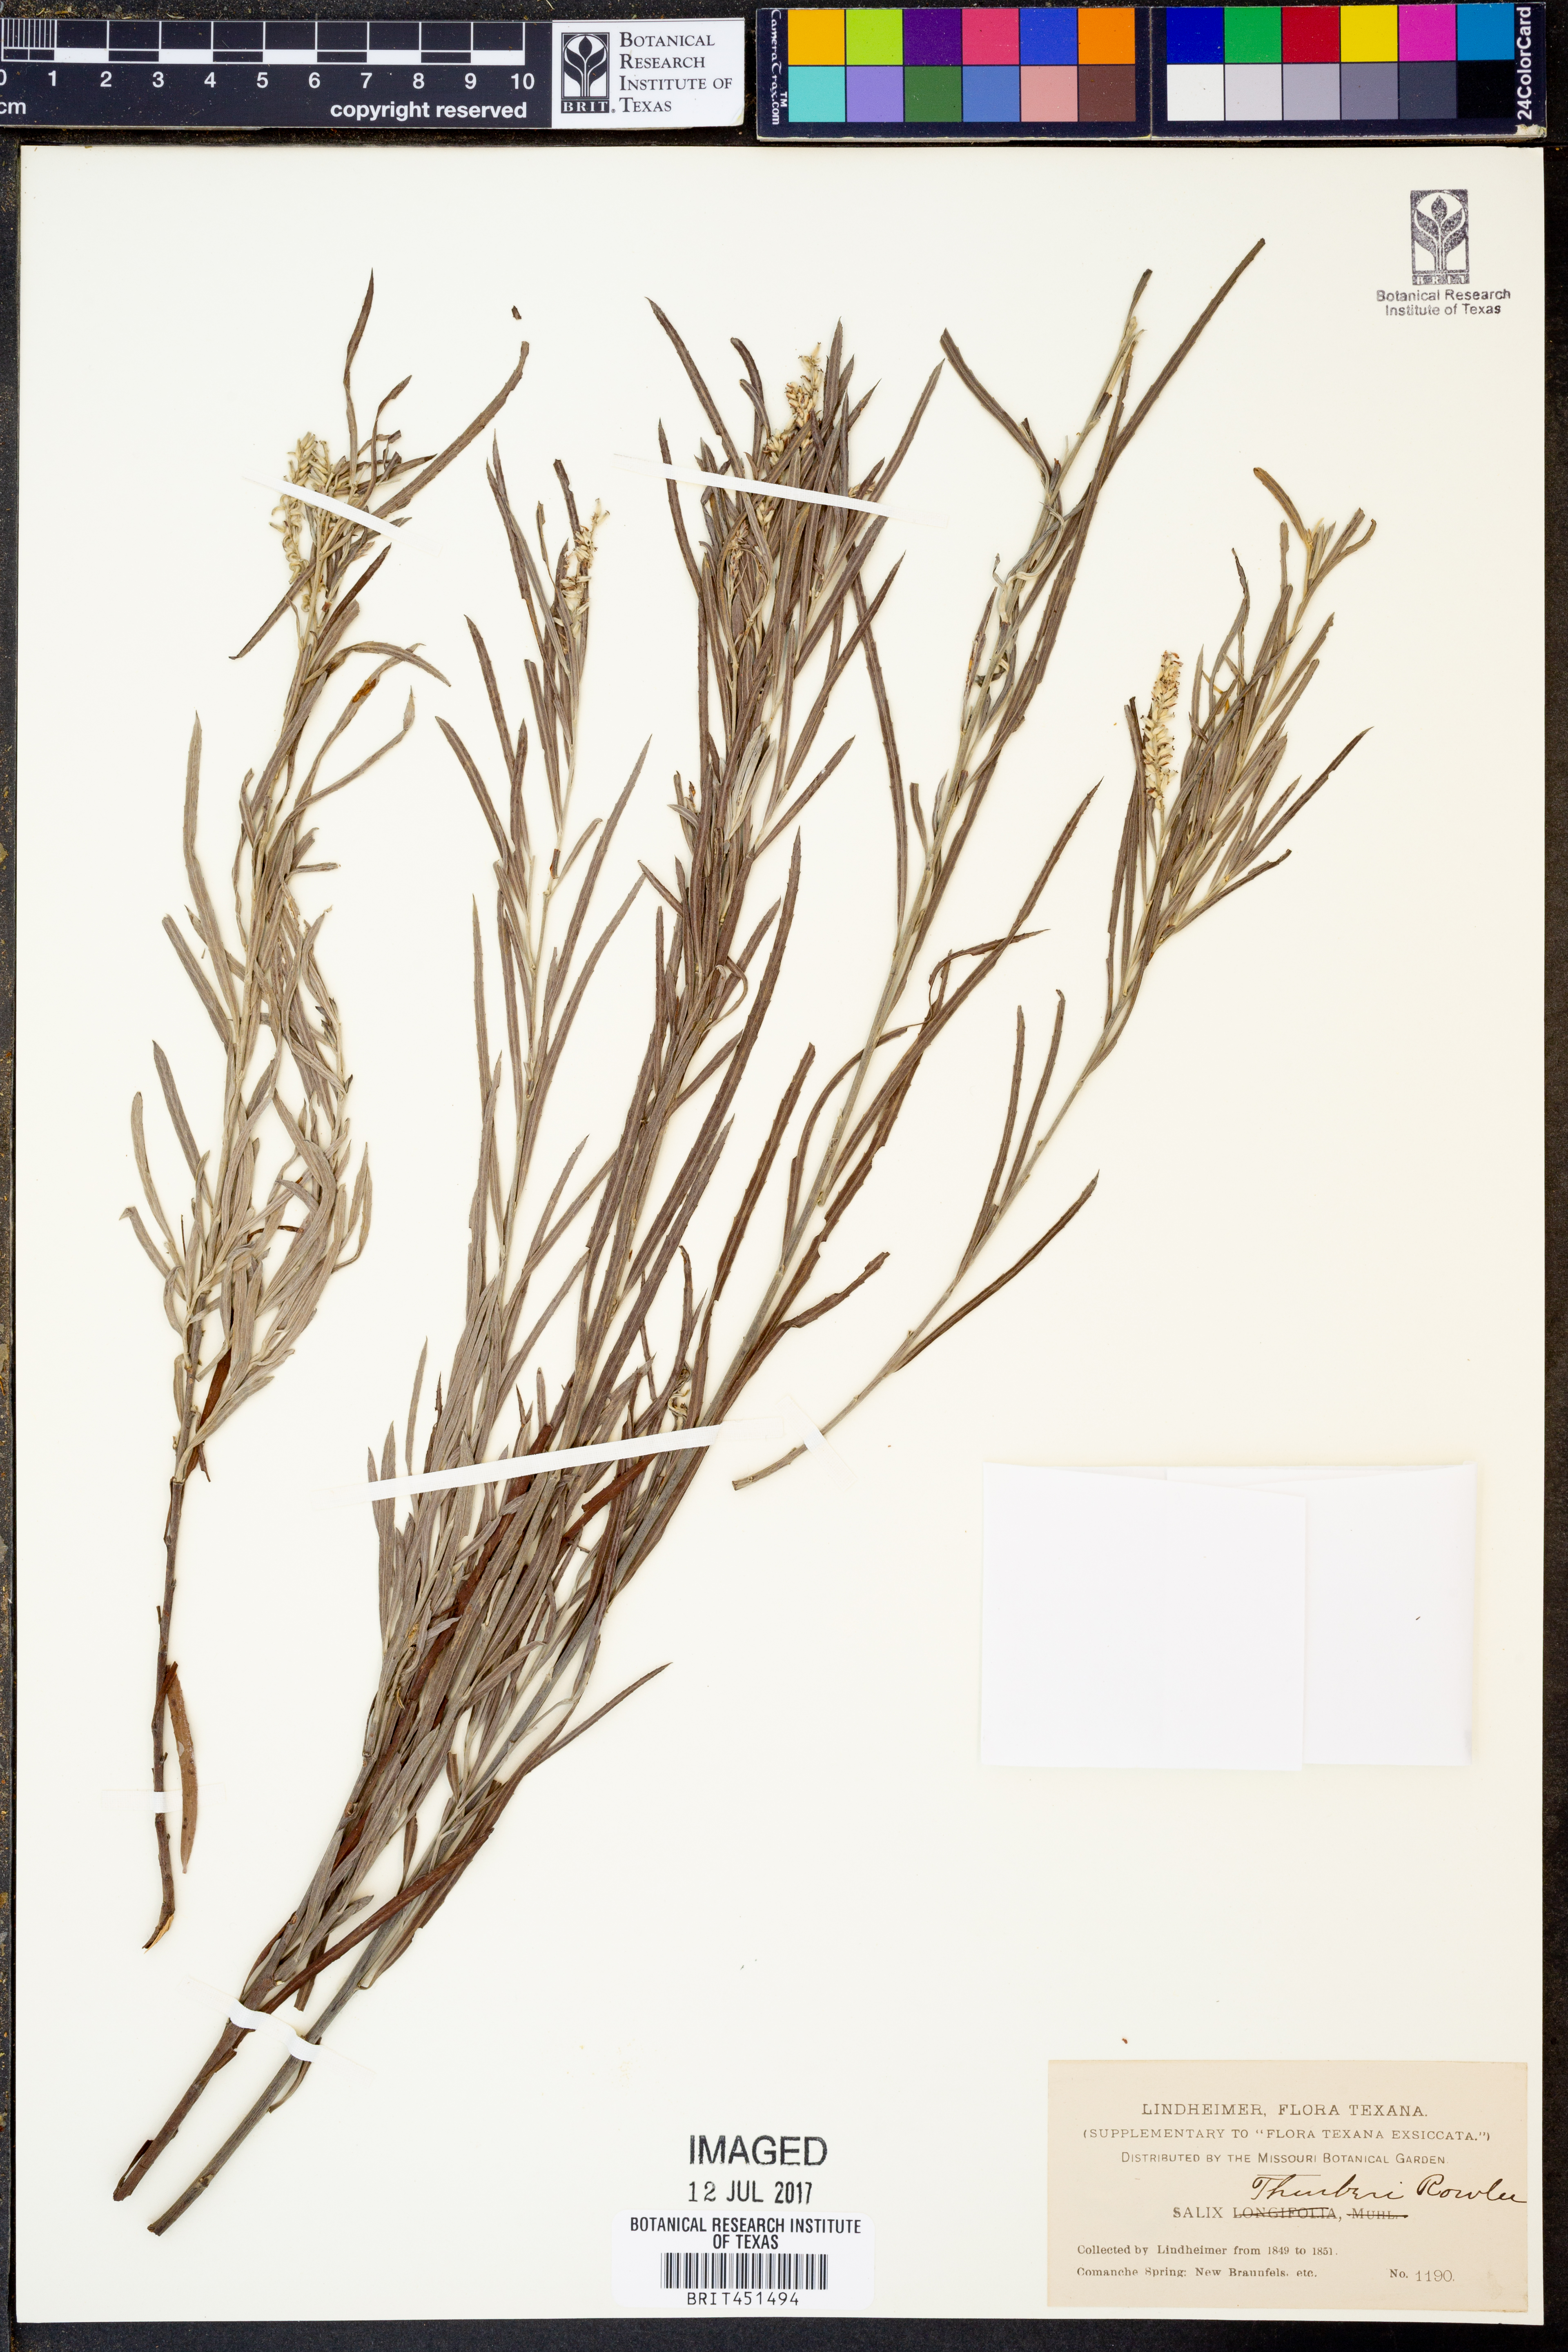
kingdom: Plantae
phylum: Tracheophyta
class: Magnoliopsida
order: Malpighiales
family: Salicaceae
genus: Salix
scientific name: Salix exigua
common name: Coyote willow
